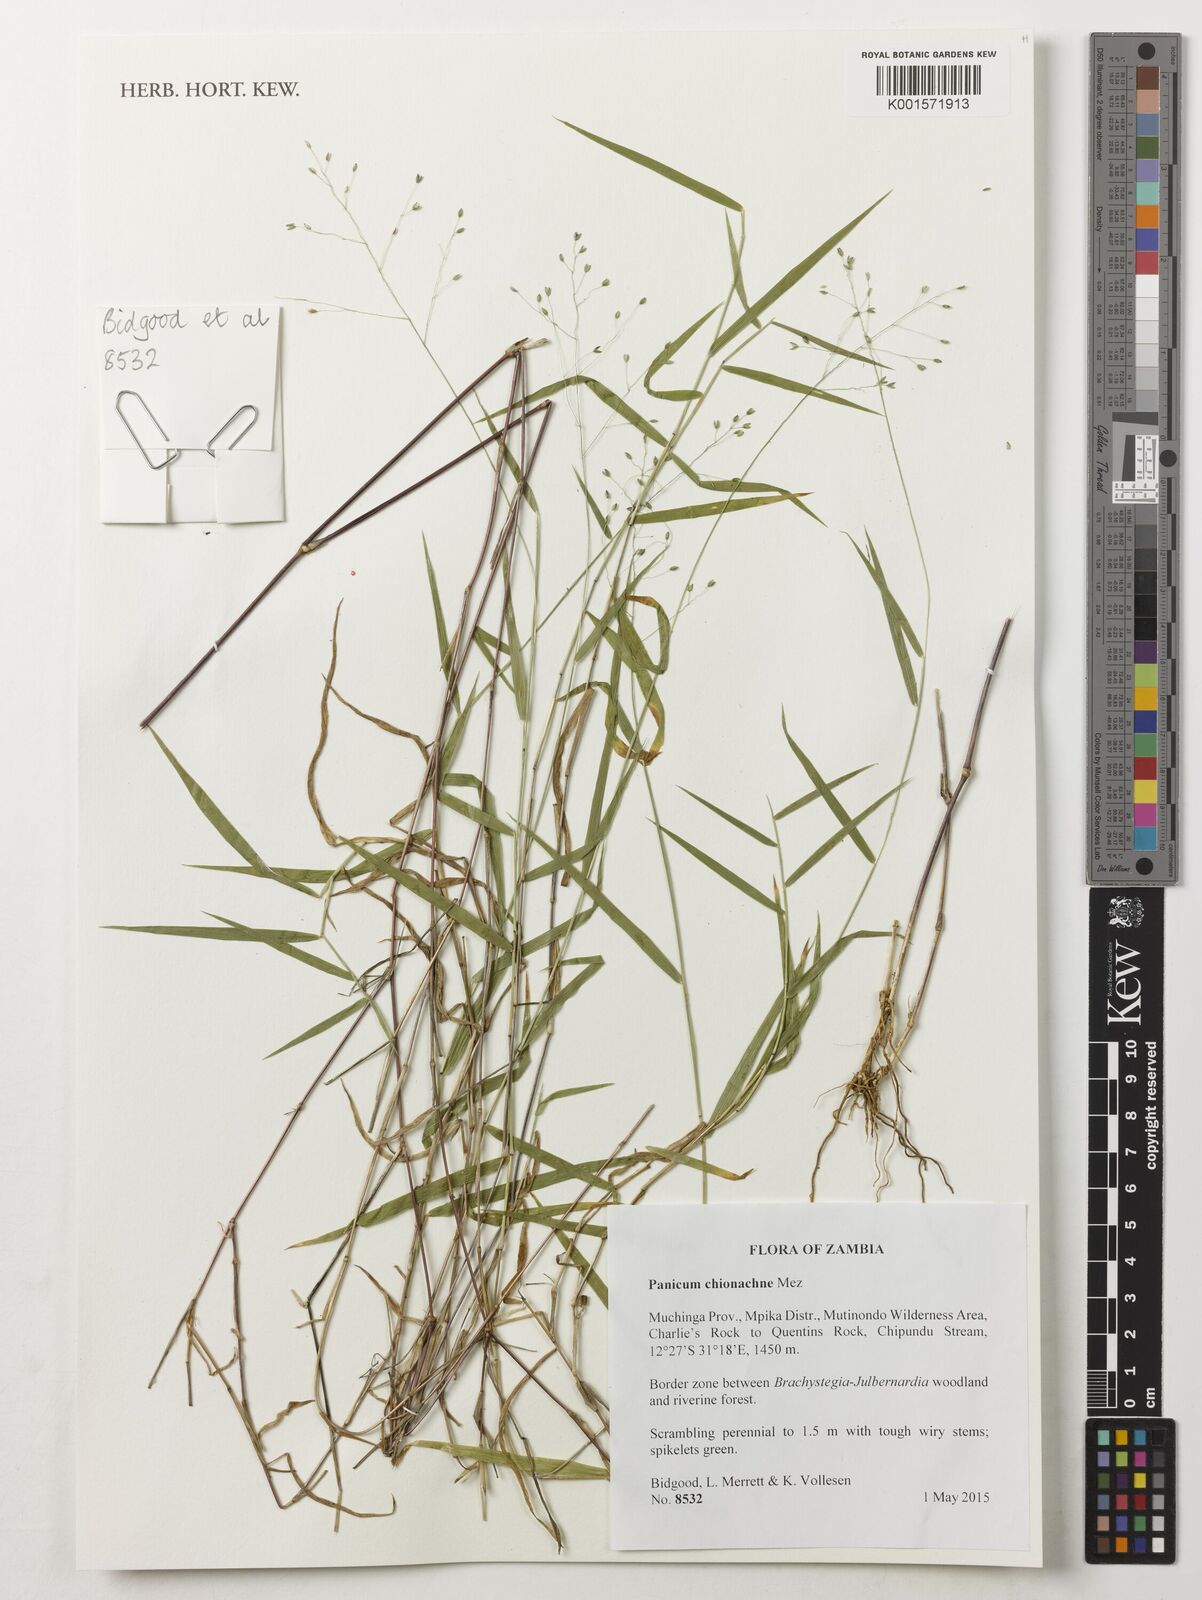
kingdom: Plantae
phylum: Tracheophyta
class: Liliopsida
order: Poales
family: Poaceae
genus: Panicum
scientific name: Panicum chionachne
